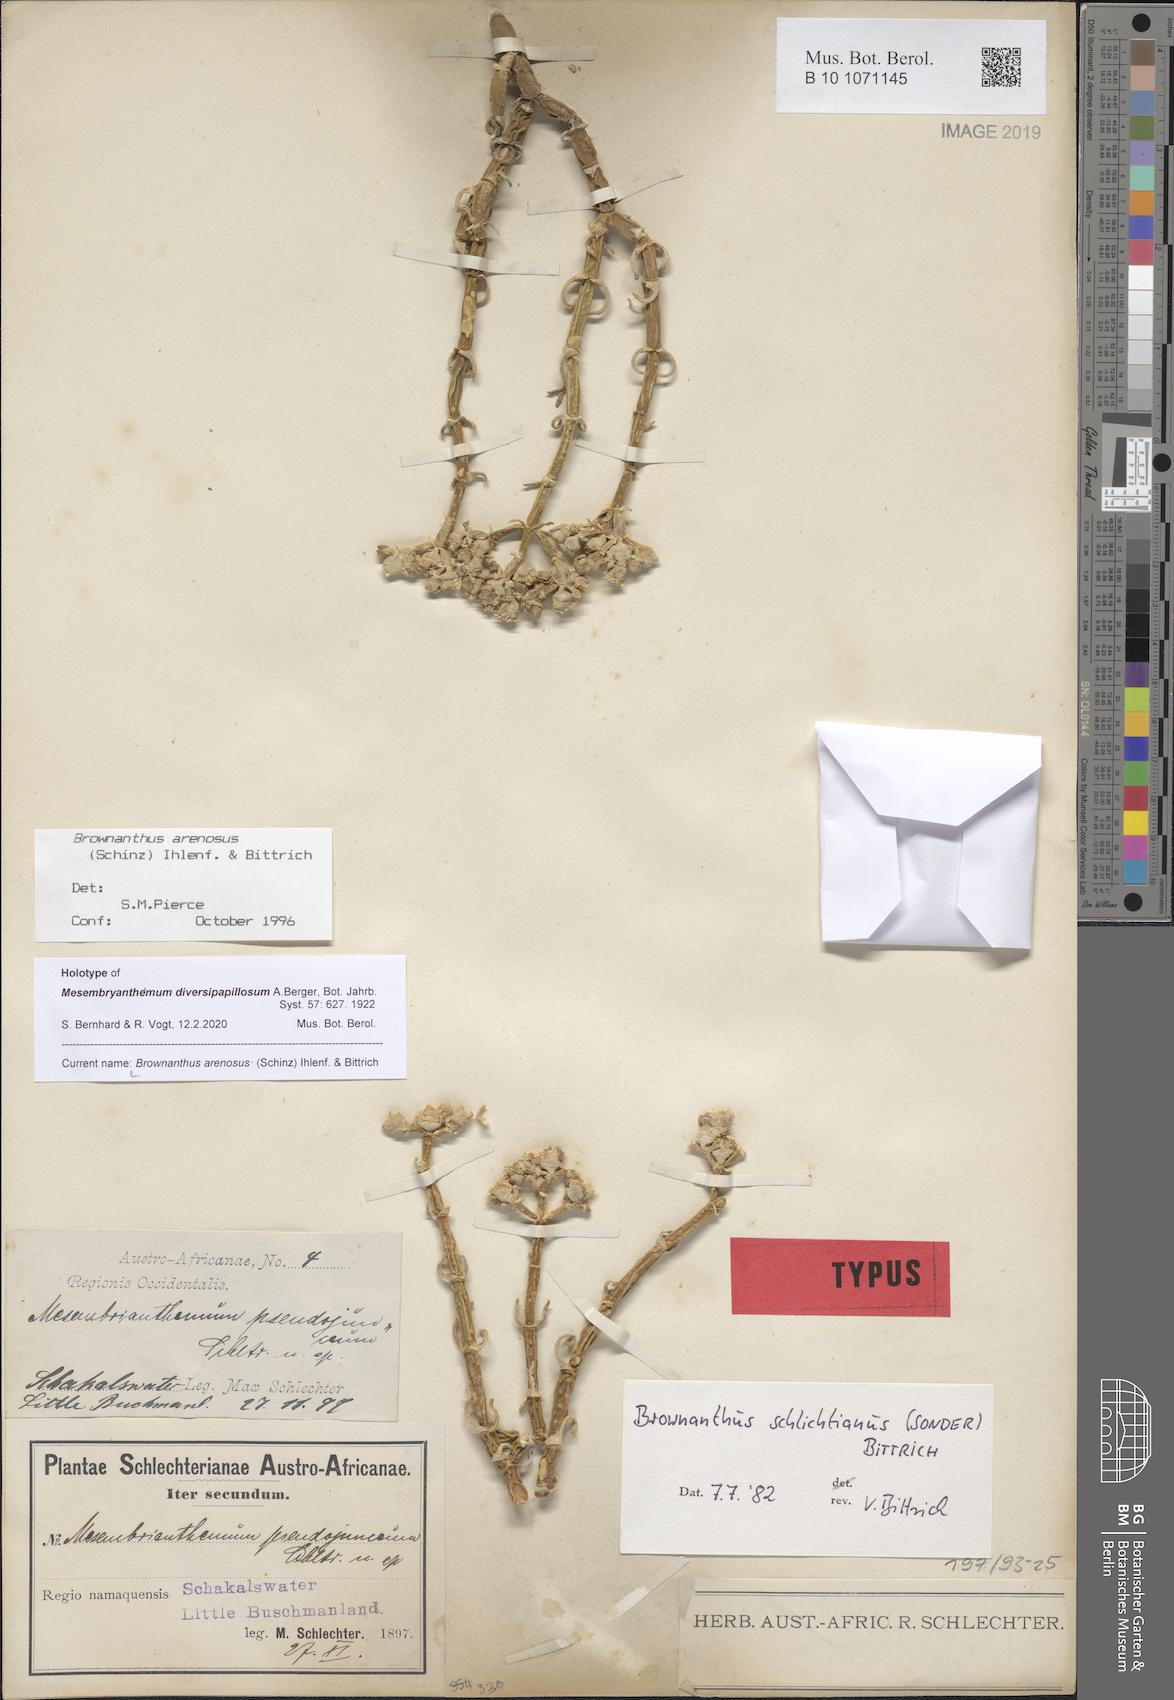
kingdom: Plantae
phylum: Tracheophyta
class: Magnoliopsida
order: Caryophyllales
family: Aizoaceae
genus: Mesembryanthemum
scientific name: Mesembryanthemum schlichtianum
